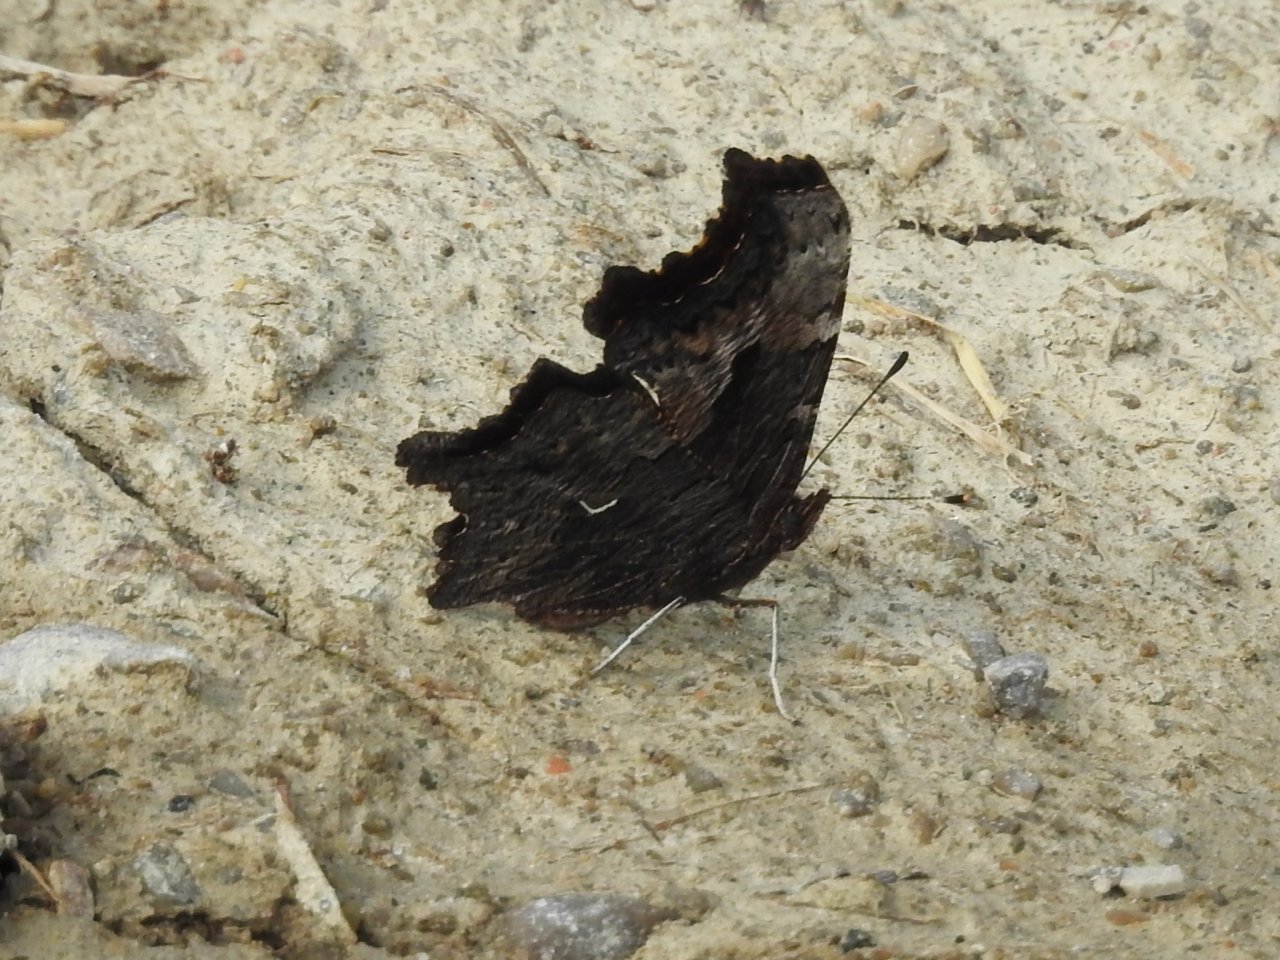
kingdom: Animalia
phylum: Arthropoda
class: Insecta
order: Lepidoptera
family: Nymphalidae
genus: Polygonia
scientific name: Polygonia progne
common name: Gray Comma
